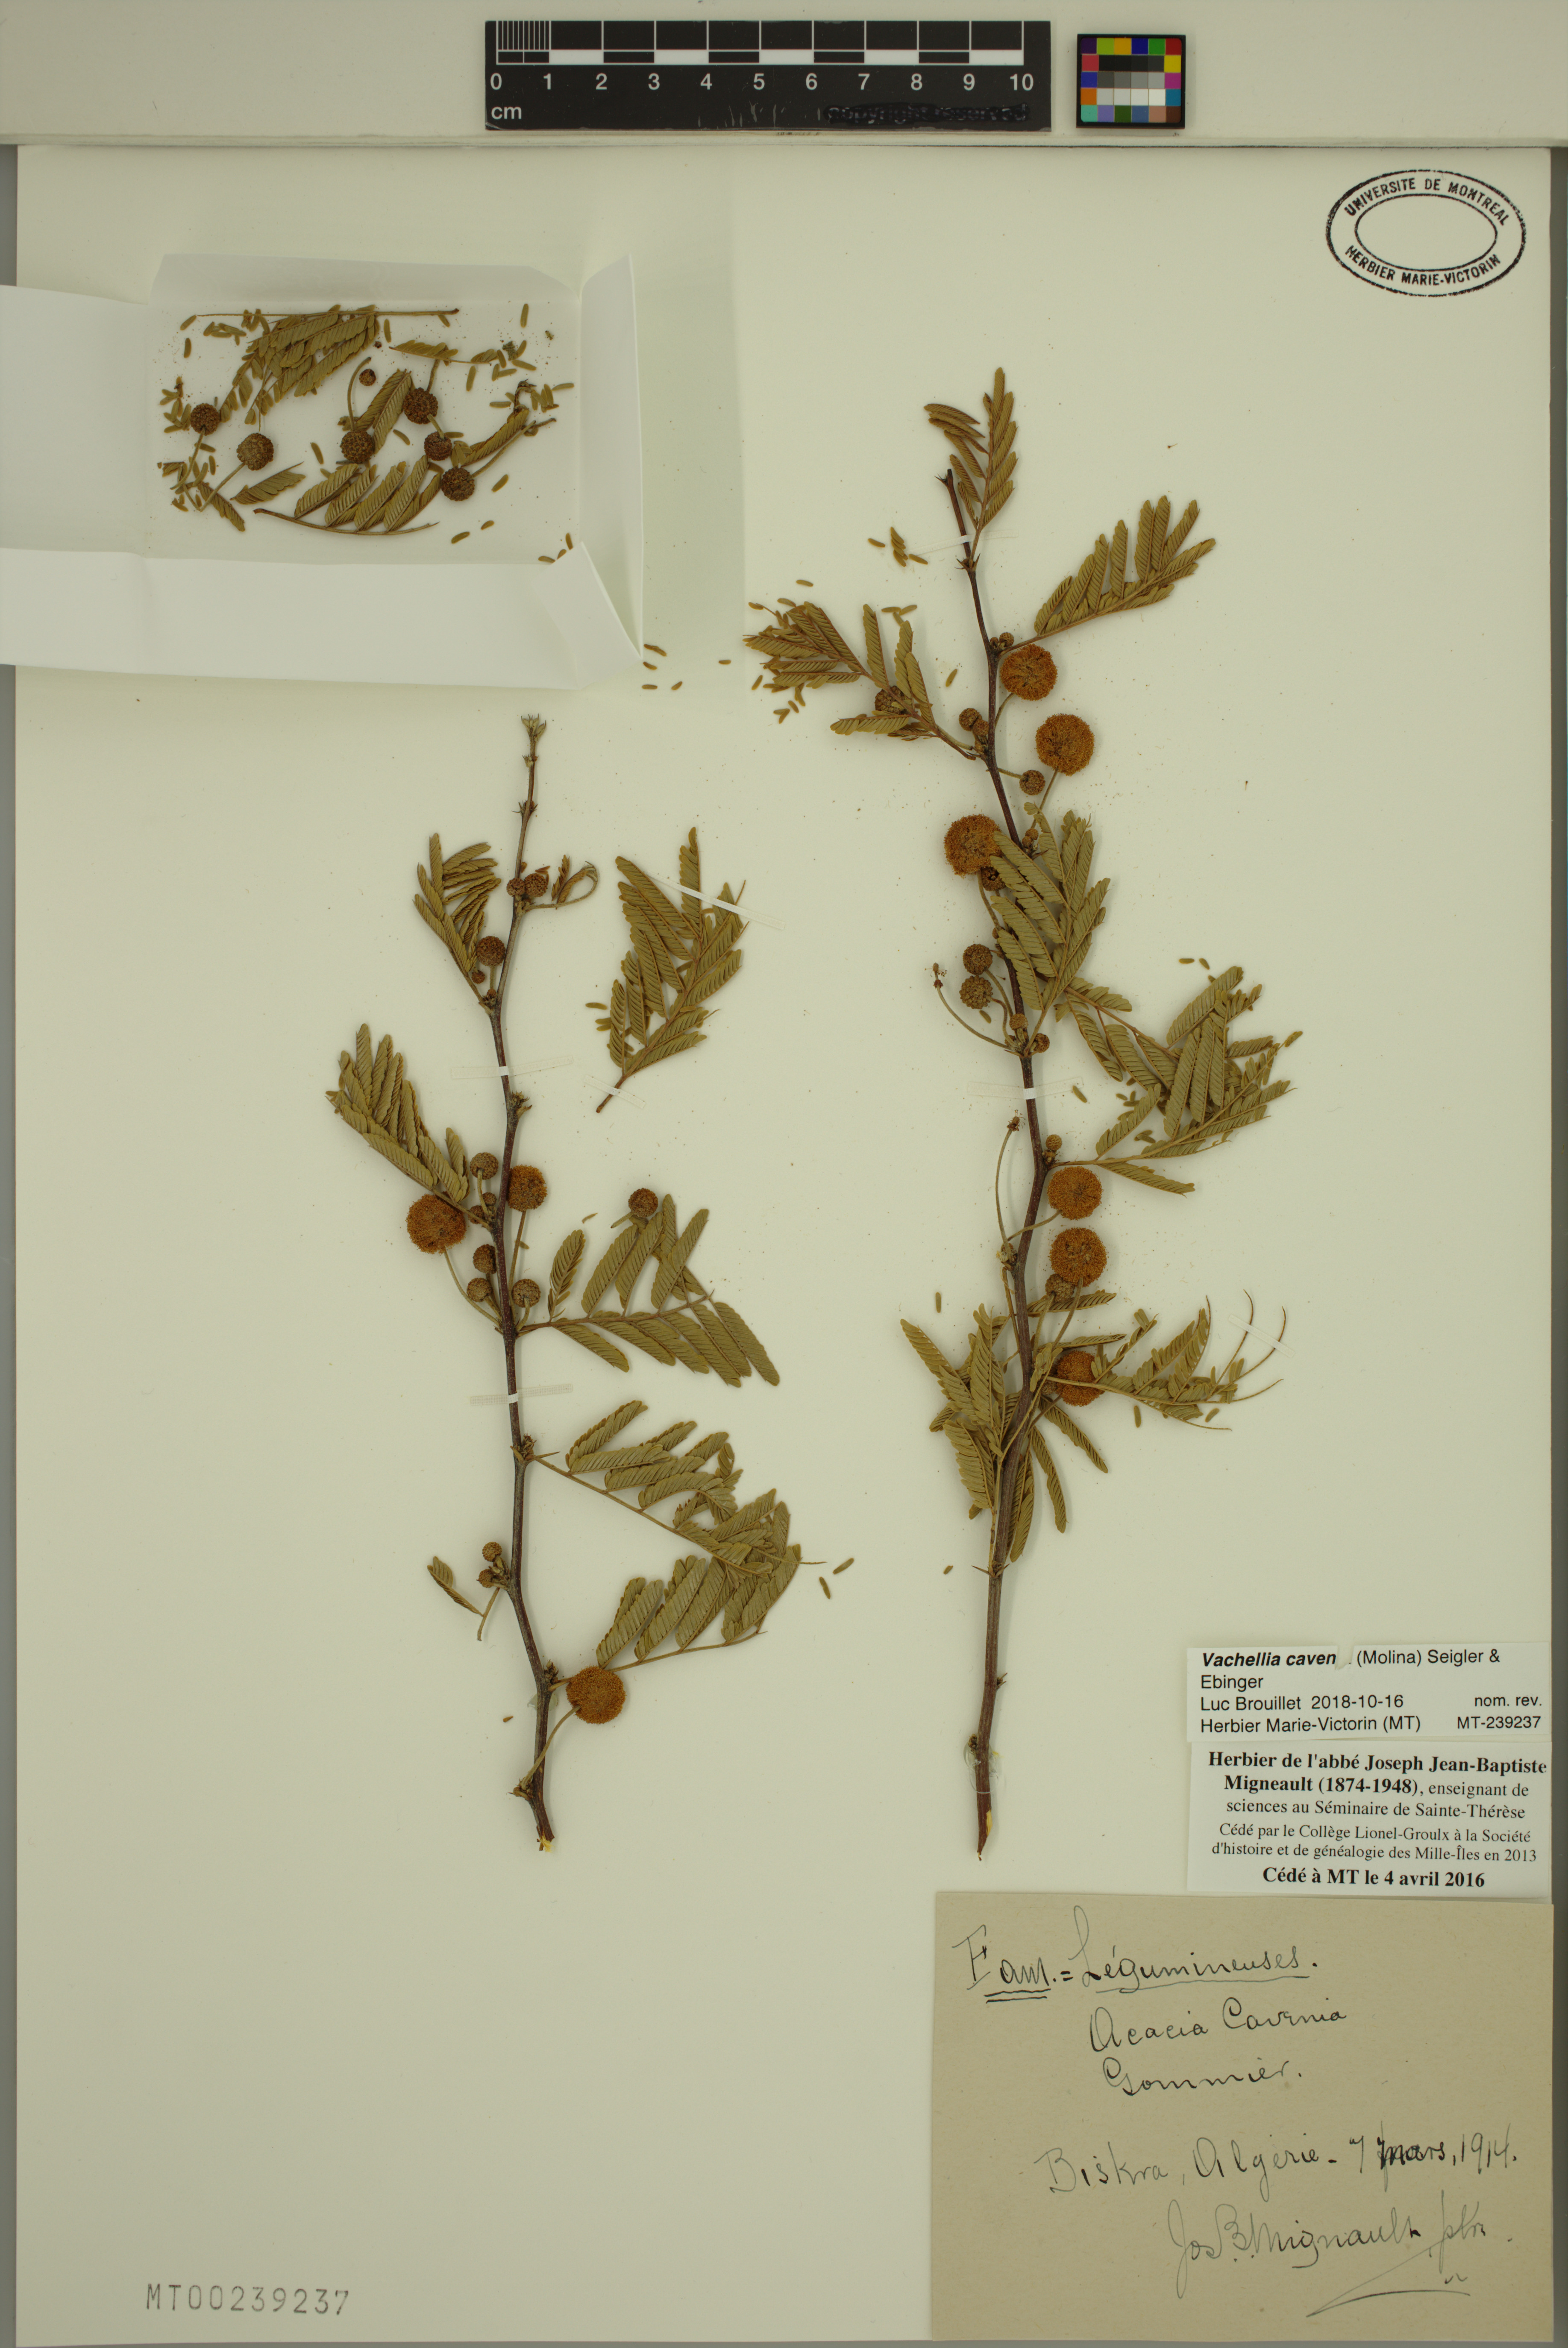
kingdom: Plantae
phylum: Tracheophyta
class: Magnoliopsida
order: Fabales
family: Fabaceae
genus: Vachellia
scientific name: Vachellia caven
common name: Roman cassie
